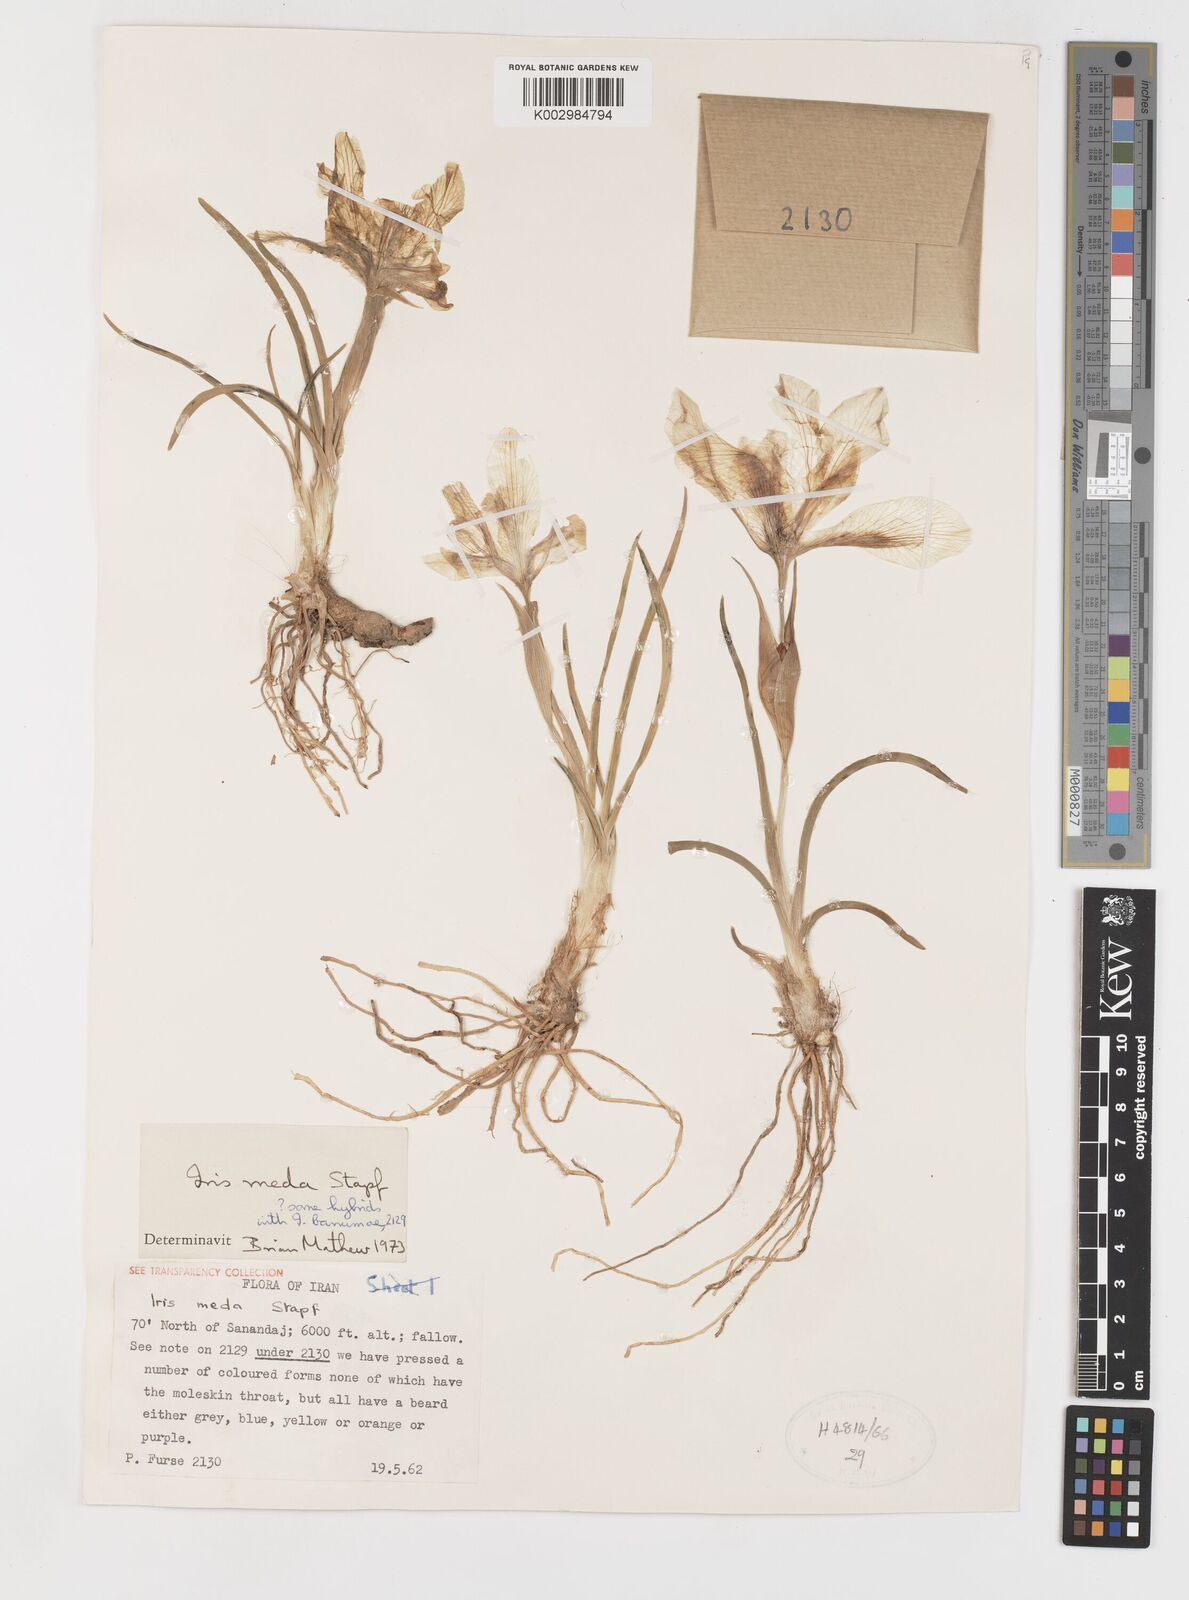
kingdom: Plantae
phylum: Tracheophyta
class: Liliopsida
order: Asparagales
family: Iridaceae
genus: Iris
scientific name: Iris meda
